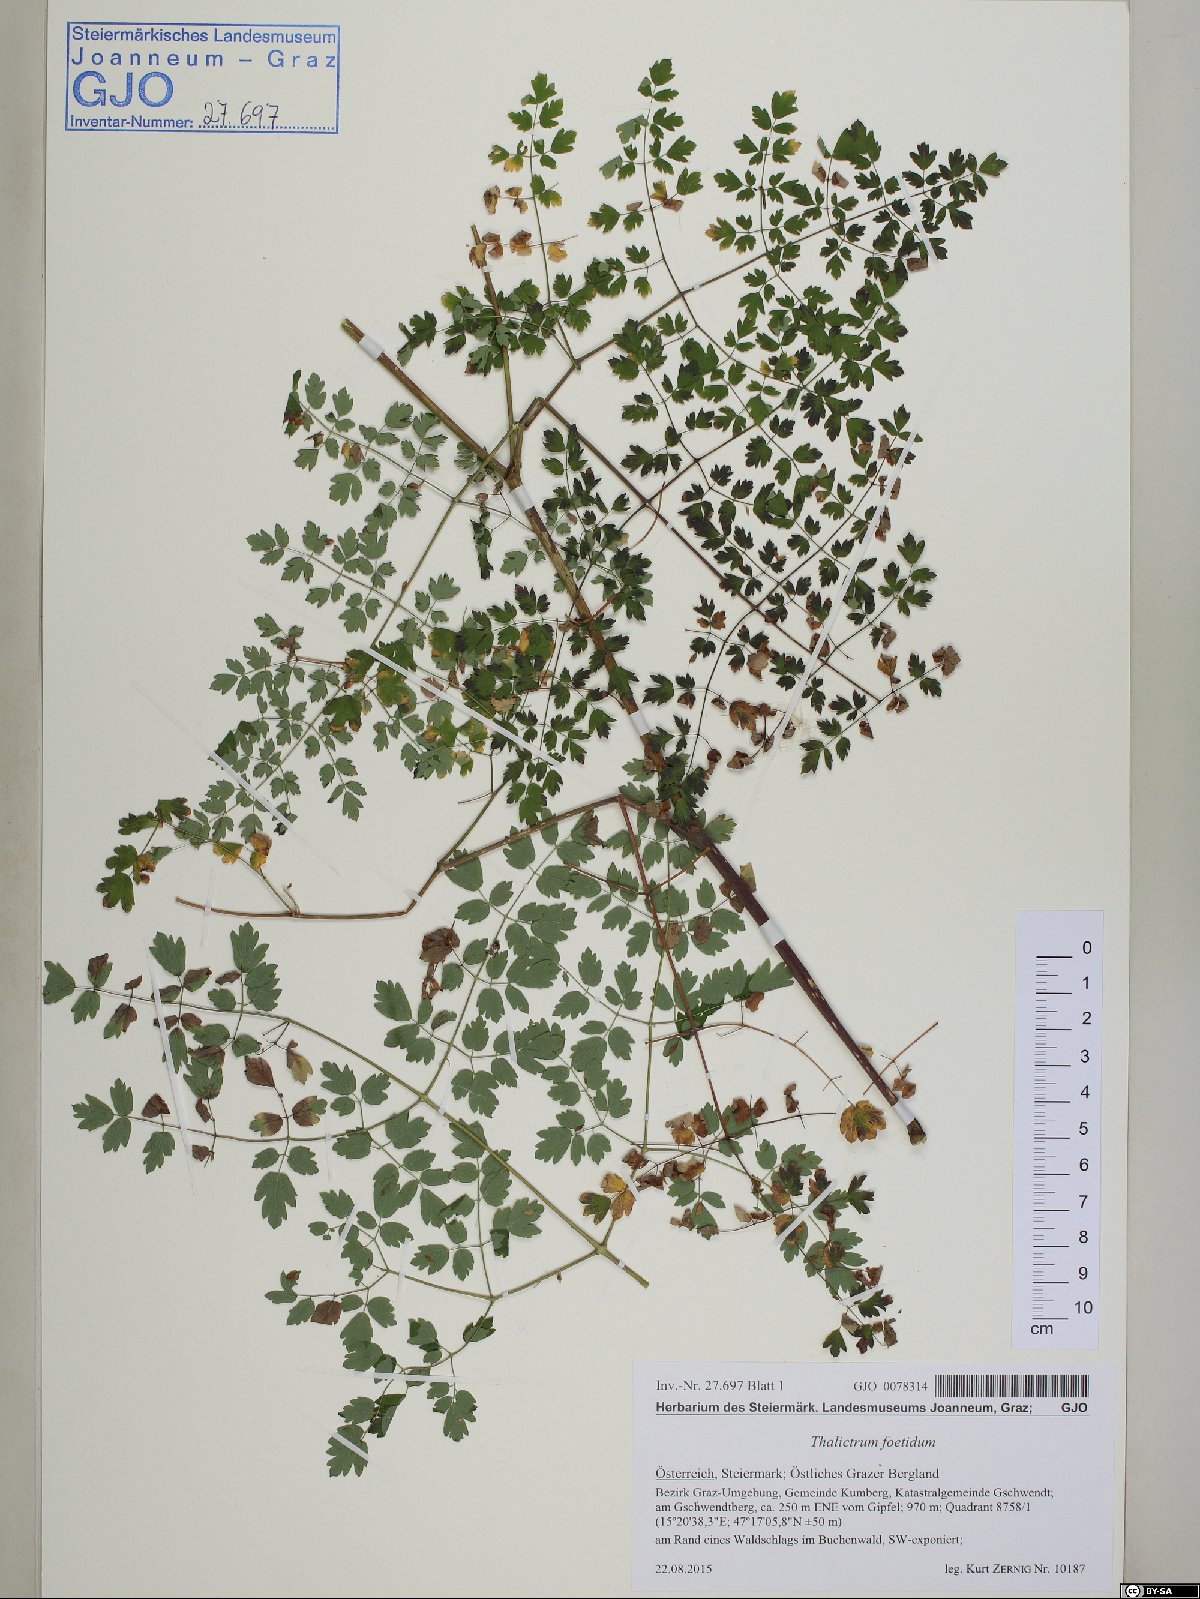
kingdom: Plantae
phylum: Tracheophyta
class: Magnoliopsida
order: Ranunculales
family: Ranunculaceae
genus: Thalictrum
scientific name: Thalictrum foetidum
